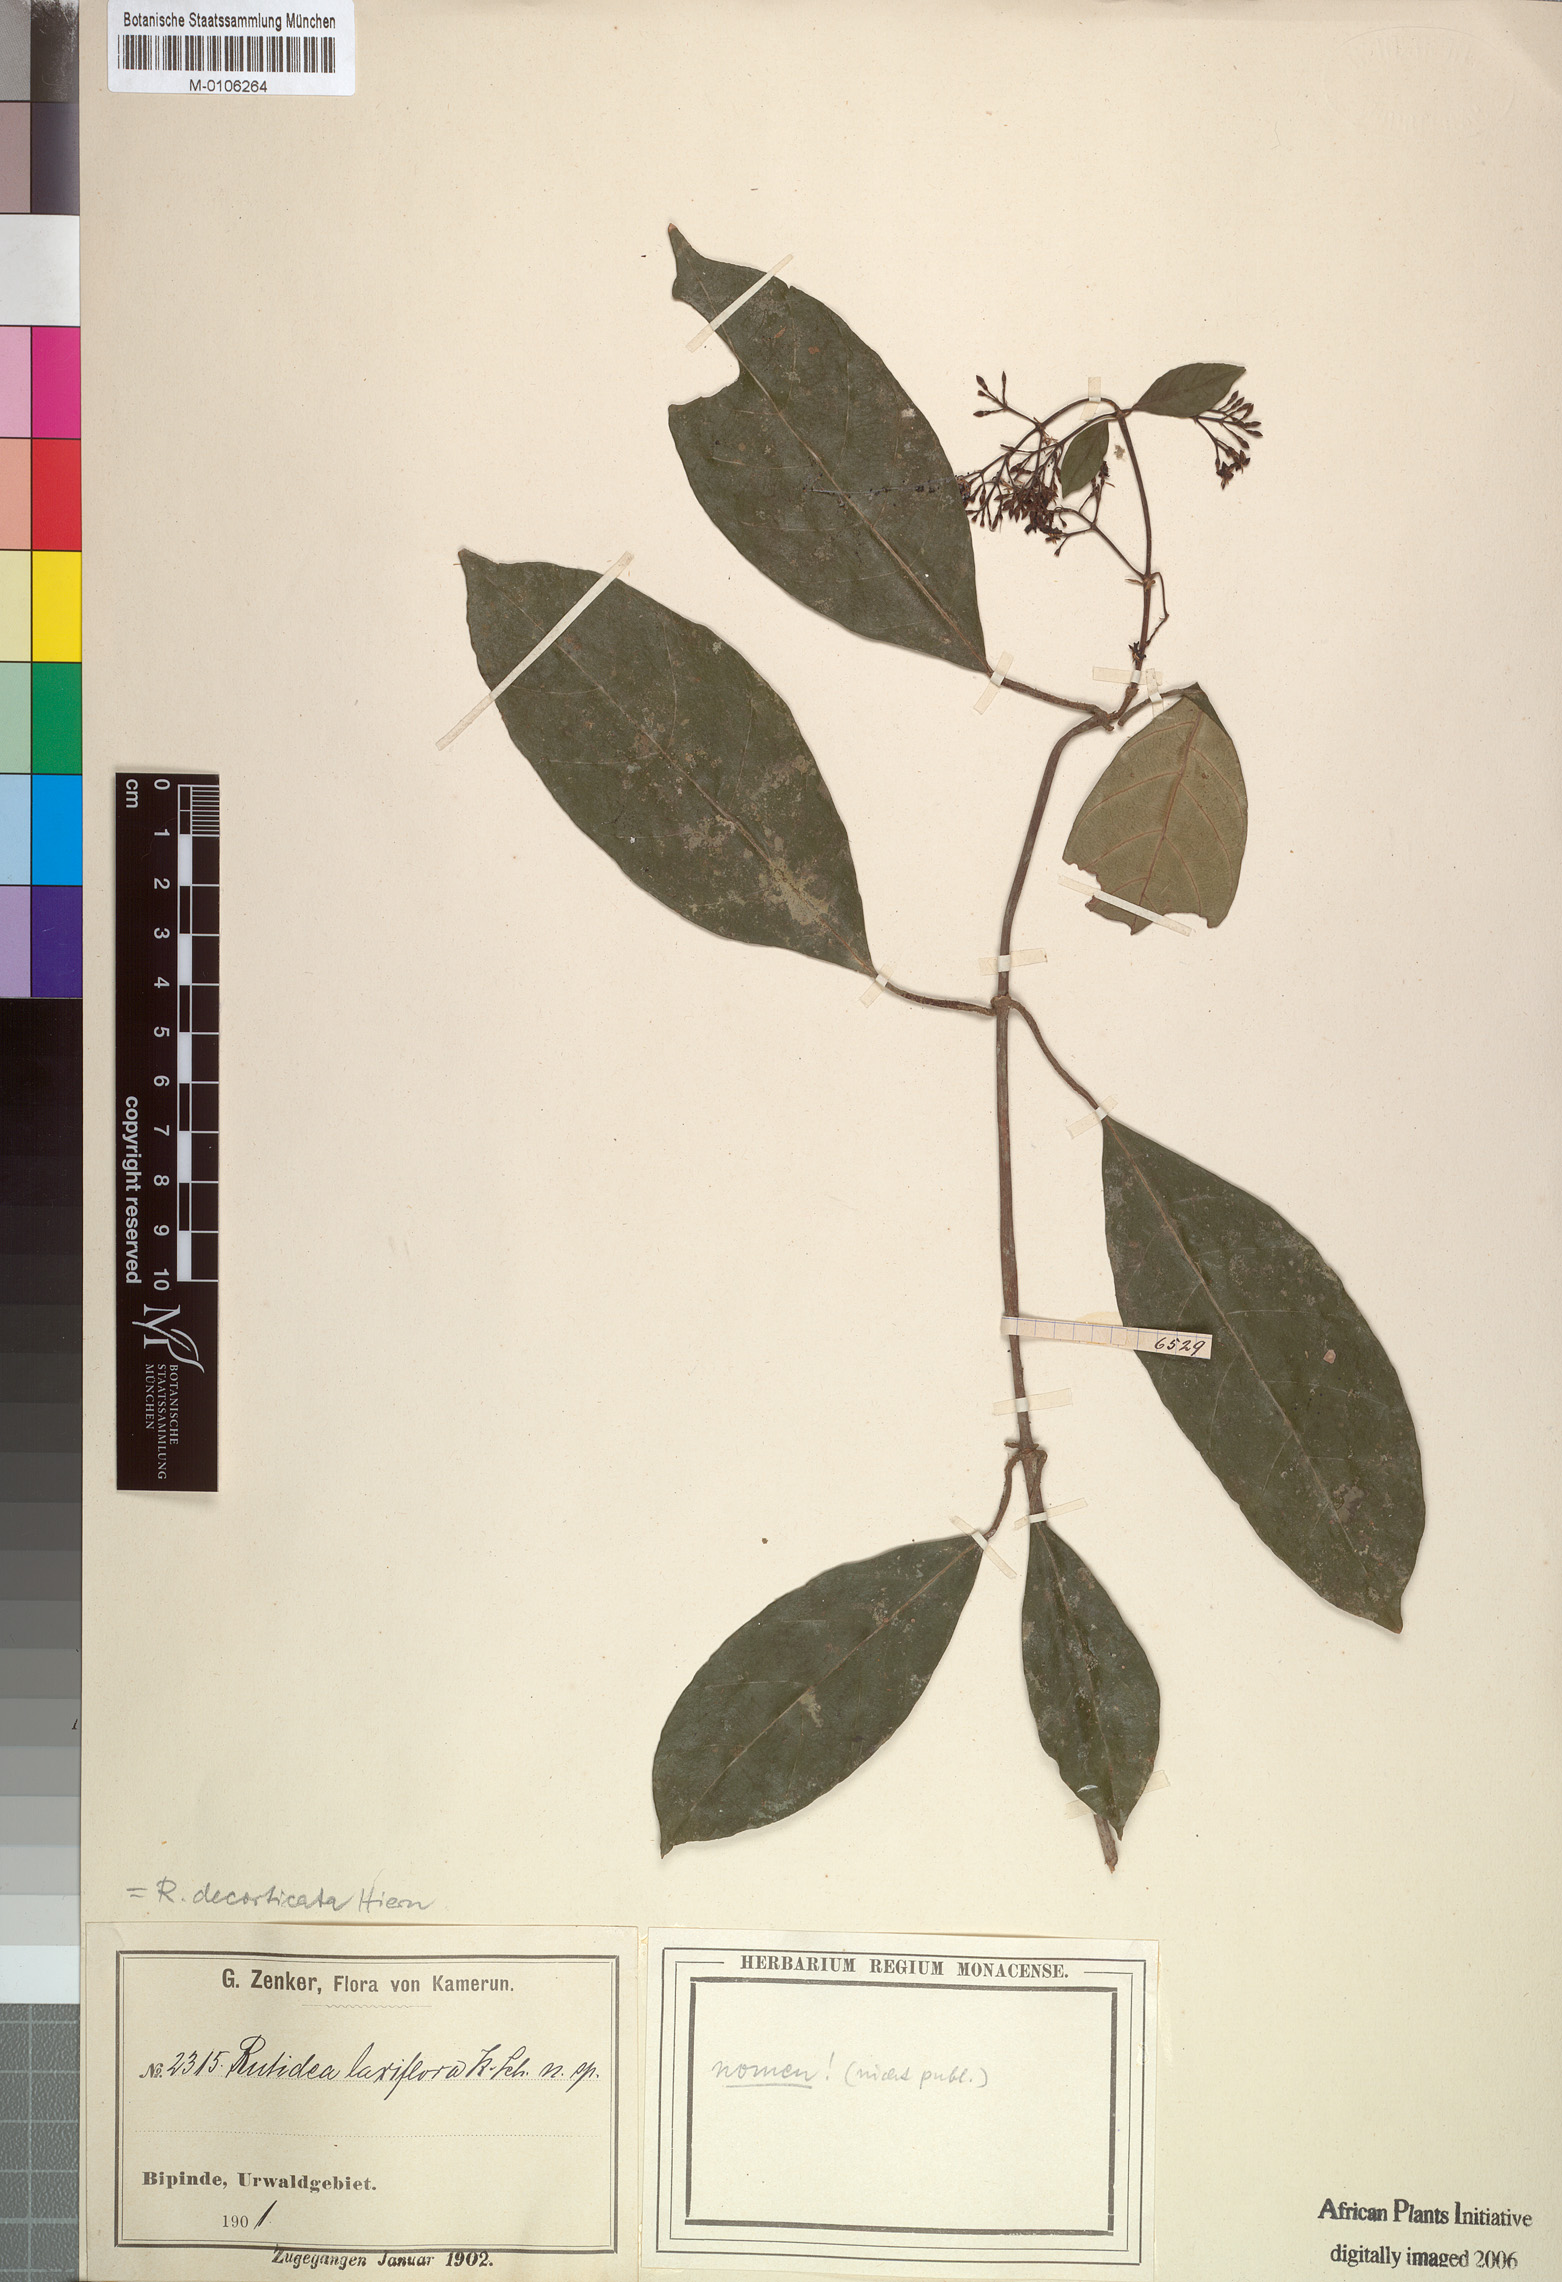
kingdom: Plantae
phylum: Tracheophyta
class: Magnoliopsida
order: Gentianales
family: Rubiaceae
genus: Rutidea
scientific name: Rutidea decorticata
